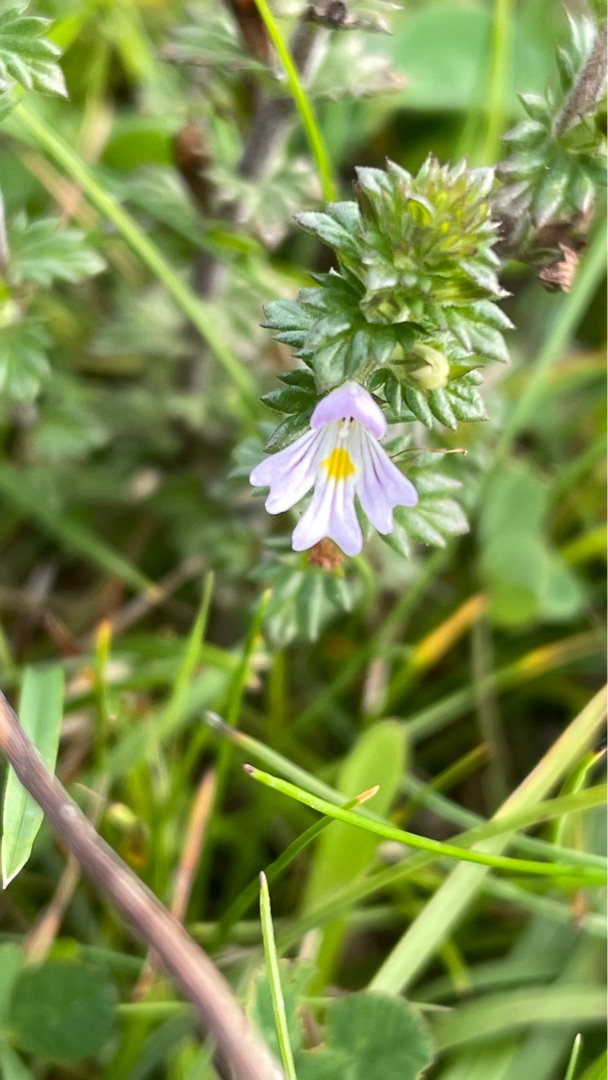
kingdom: Plantae
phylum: Tracheophyta
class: Magnoliopsida
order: Lamiales
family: Orobanchaceae
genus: Euphrasia
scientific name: Euphrasia nemorosa
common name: Kort øjentrøst
